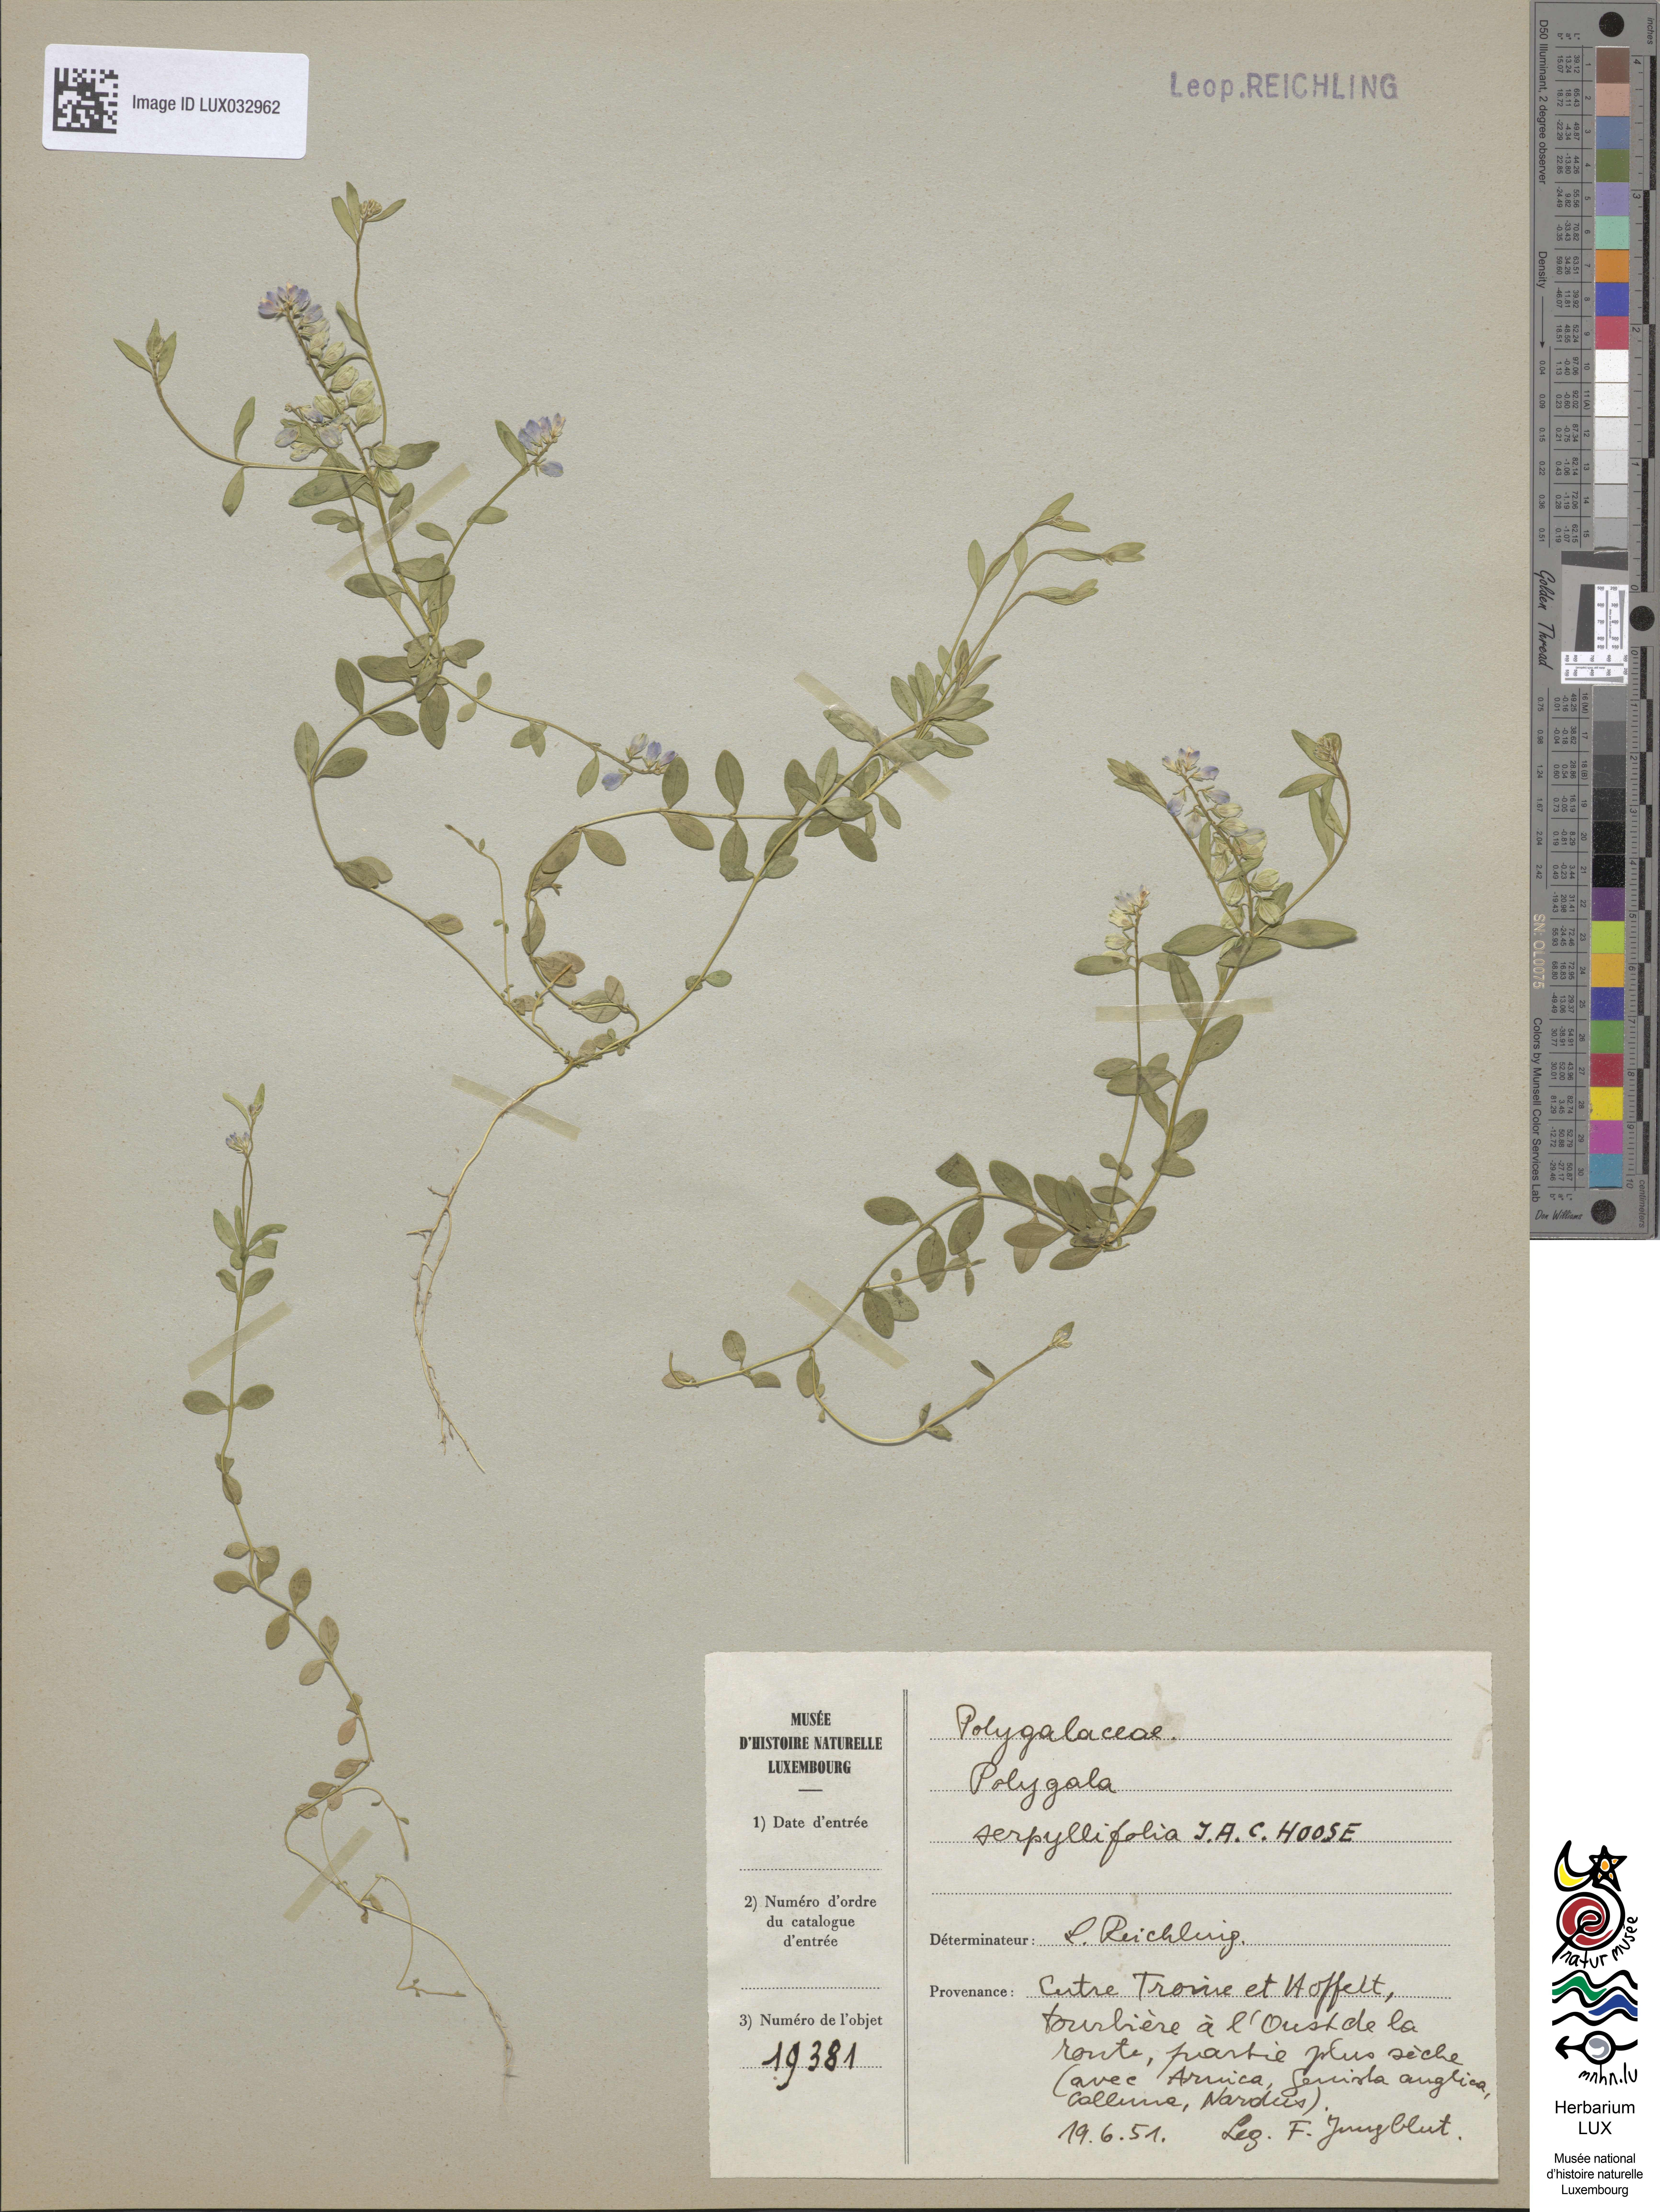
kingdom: Plantae
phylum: Tracheophyta
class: Magnoliopsida
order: Fabales
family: Polygalaceae
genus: Polygala
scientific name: Polygala serpyllifolia
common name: Heath milkwort
